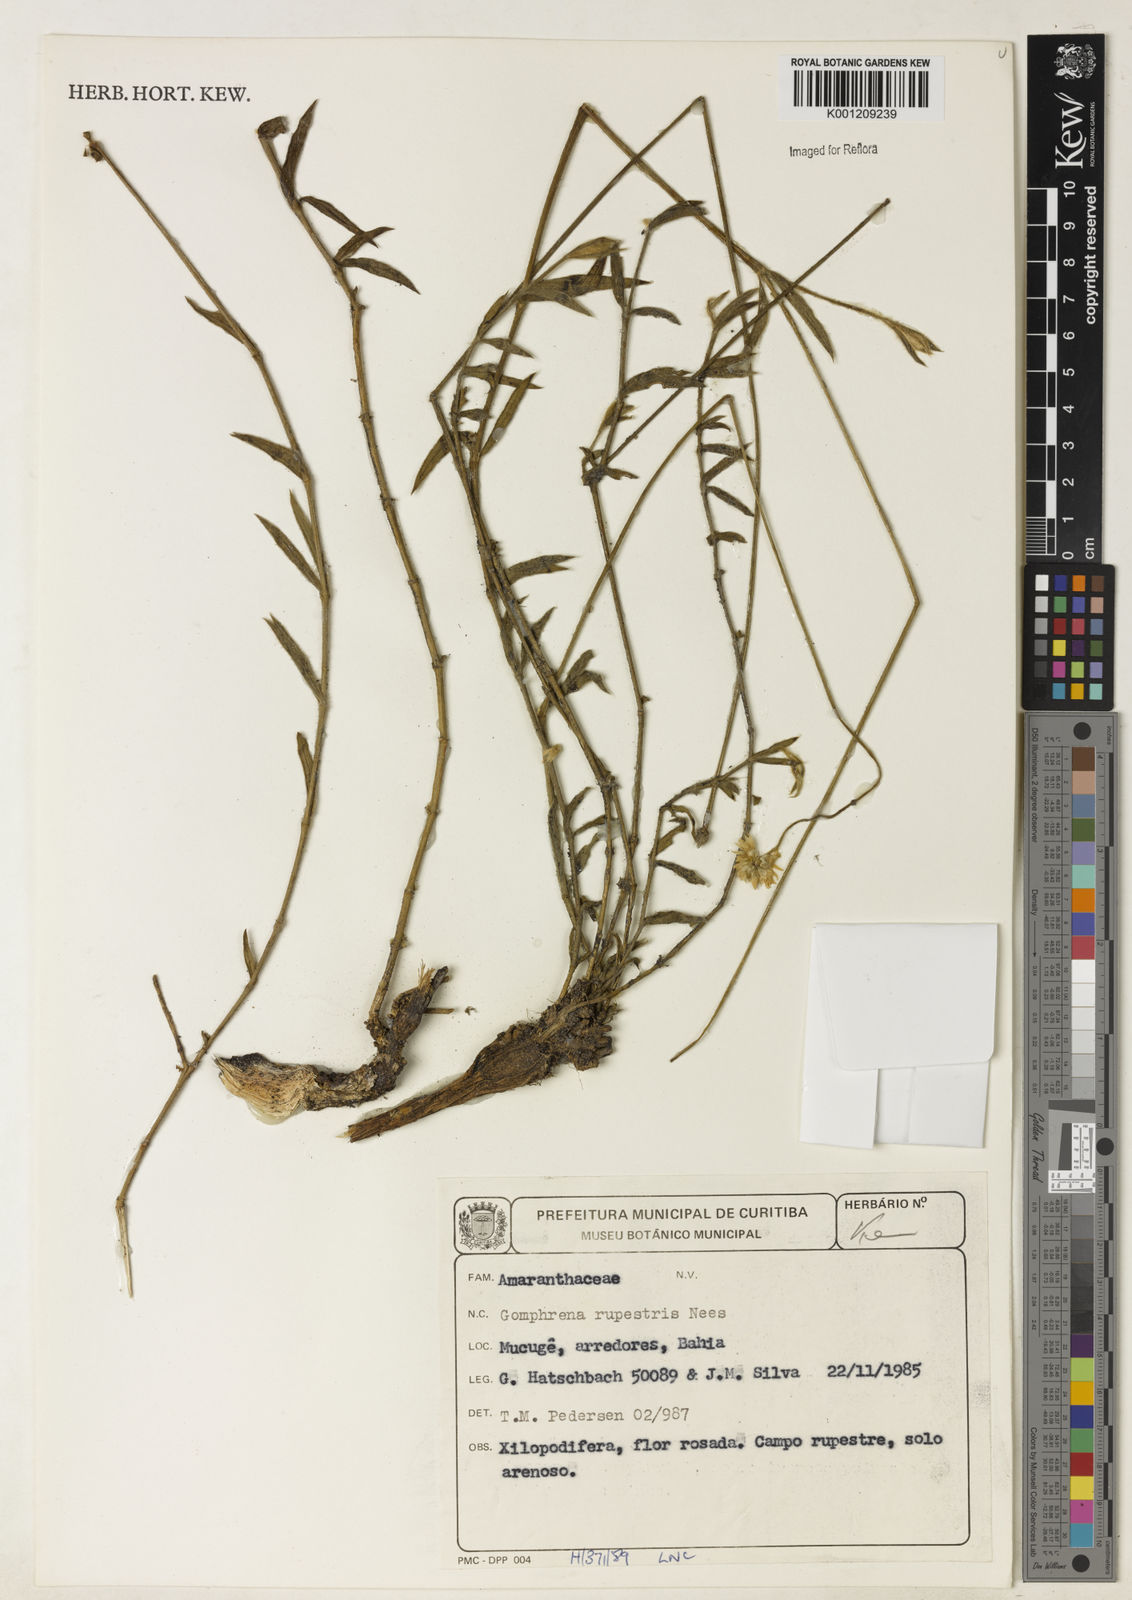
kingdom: Plantae
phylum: Tracheophyta
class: Magnoliopsida
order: Caryophyllales
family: Amaranthaceae
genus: Gomphrena
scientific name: Gomphrena rupestris
